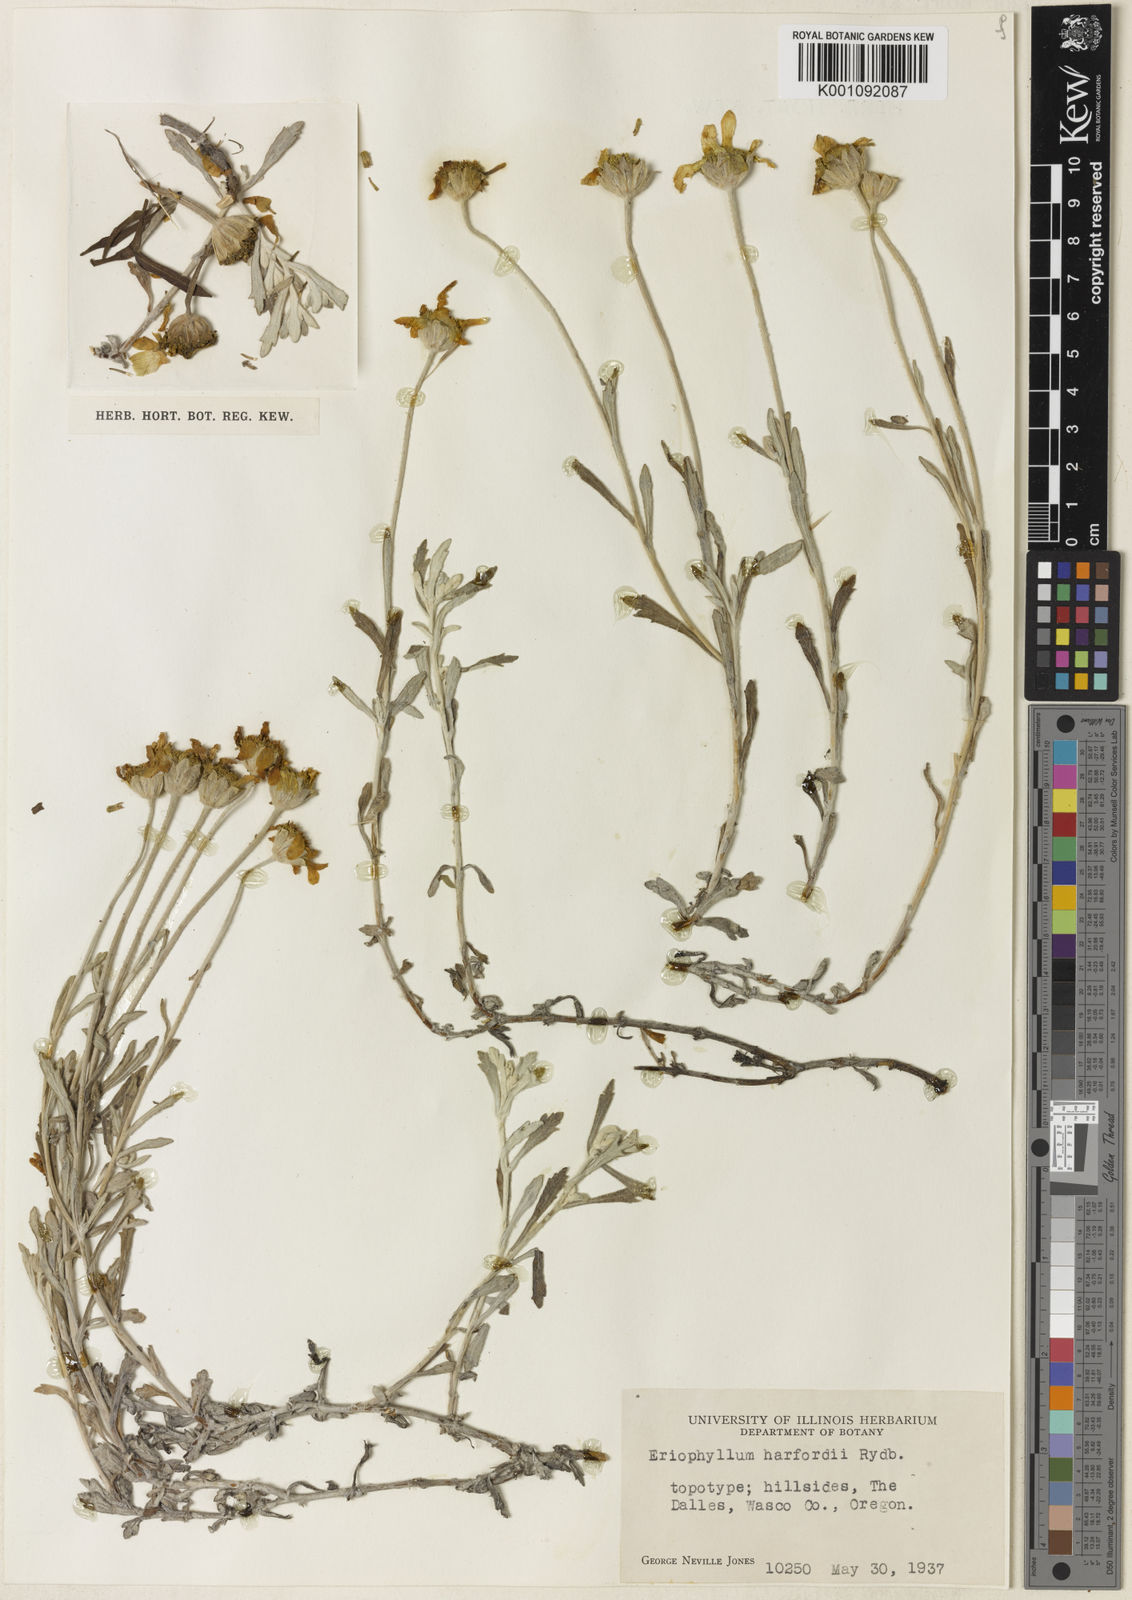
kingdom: Plantae
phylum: Tracheophyta
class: Magnoliopsida
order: Asterales
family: Asteraceae
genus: Eriophyllum
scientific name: Eriophyllum lanatum
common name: Common woolly-sunflower
